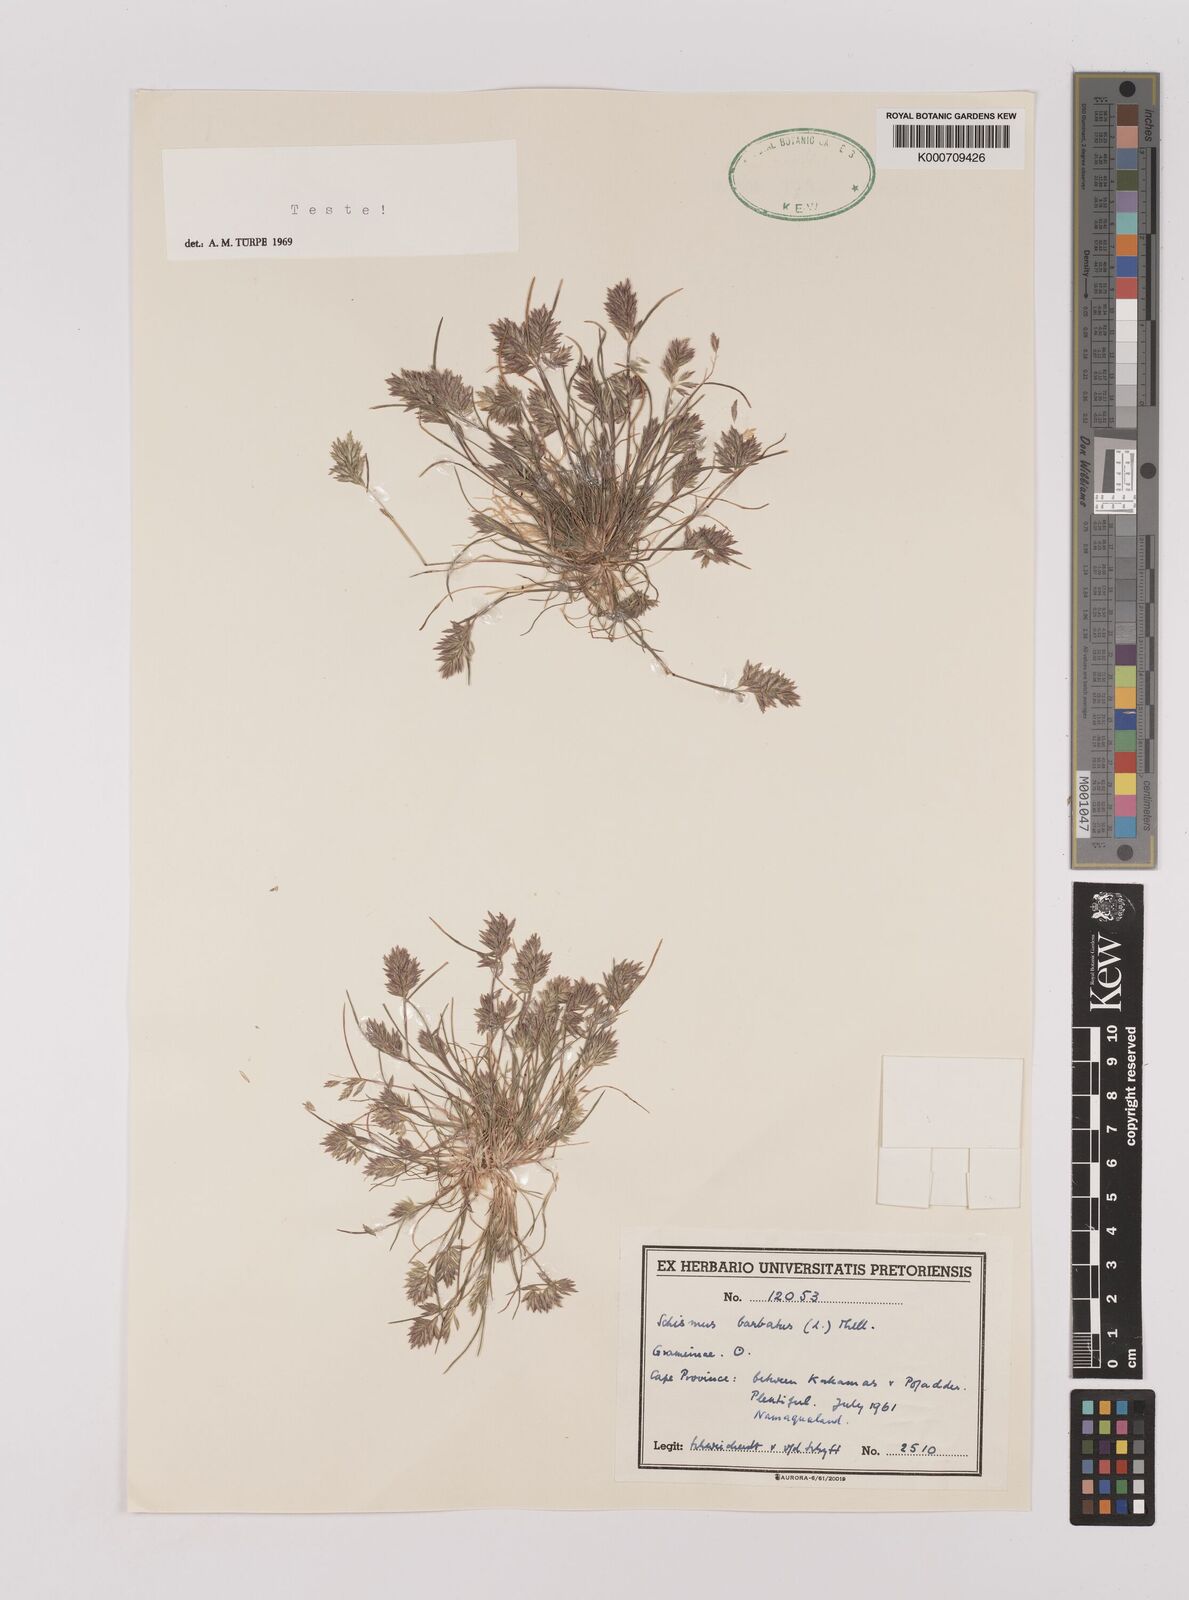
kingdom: Plantae
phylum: Tracheophyta
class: Liliopsida
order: Poales
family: Poaceae
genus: Schismus
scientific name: Schismus barbatus
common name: Kelch-grass
